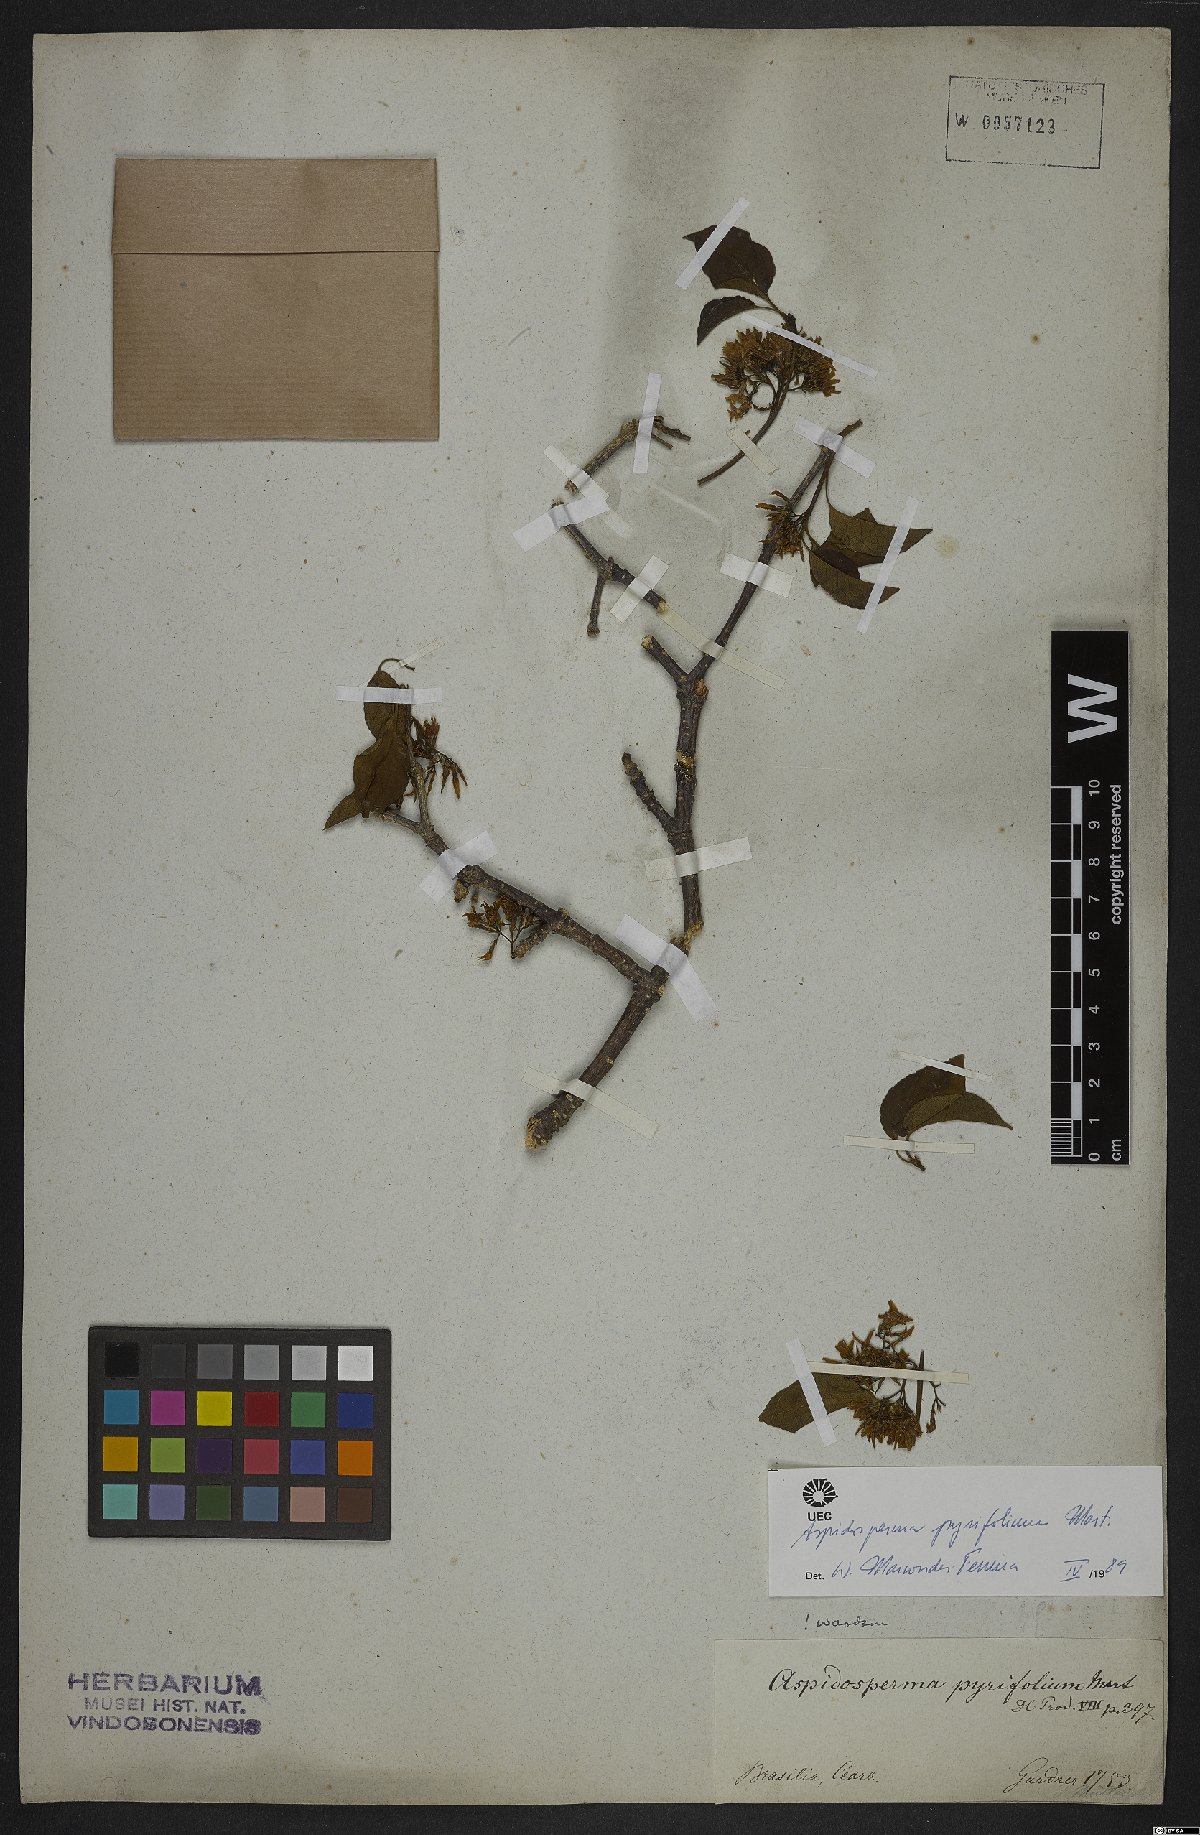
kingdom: Plantae
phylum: Tracheophyta
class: Magnoliopsida
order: Gentianales
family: Apocynaceae
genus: Aspidosperma
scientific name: Aspidosperma pyrifolium
